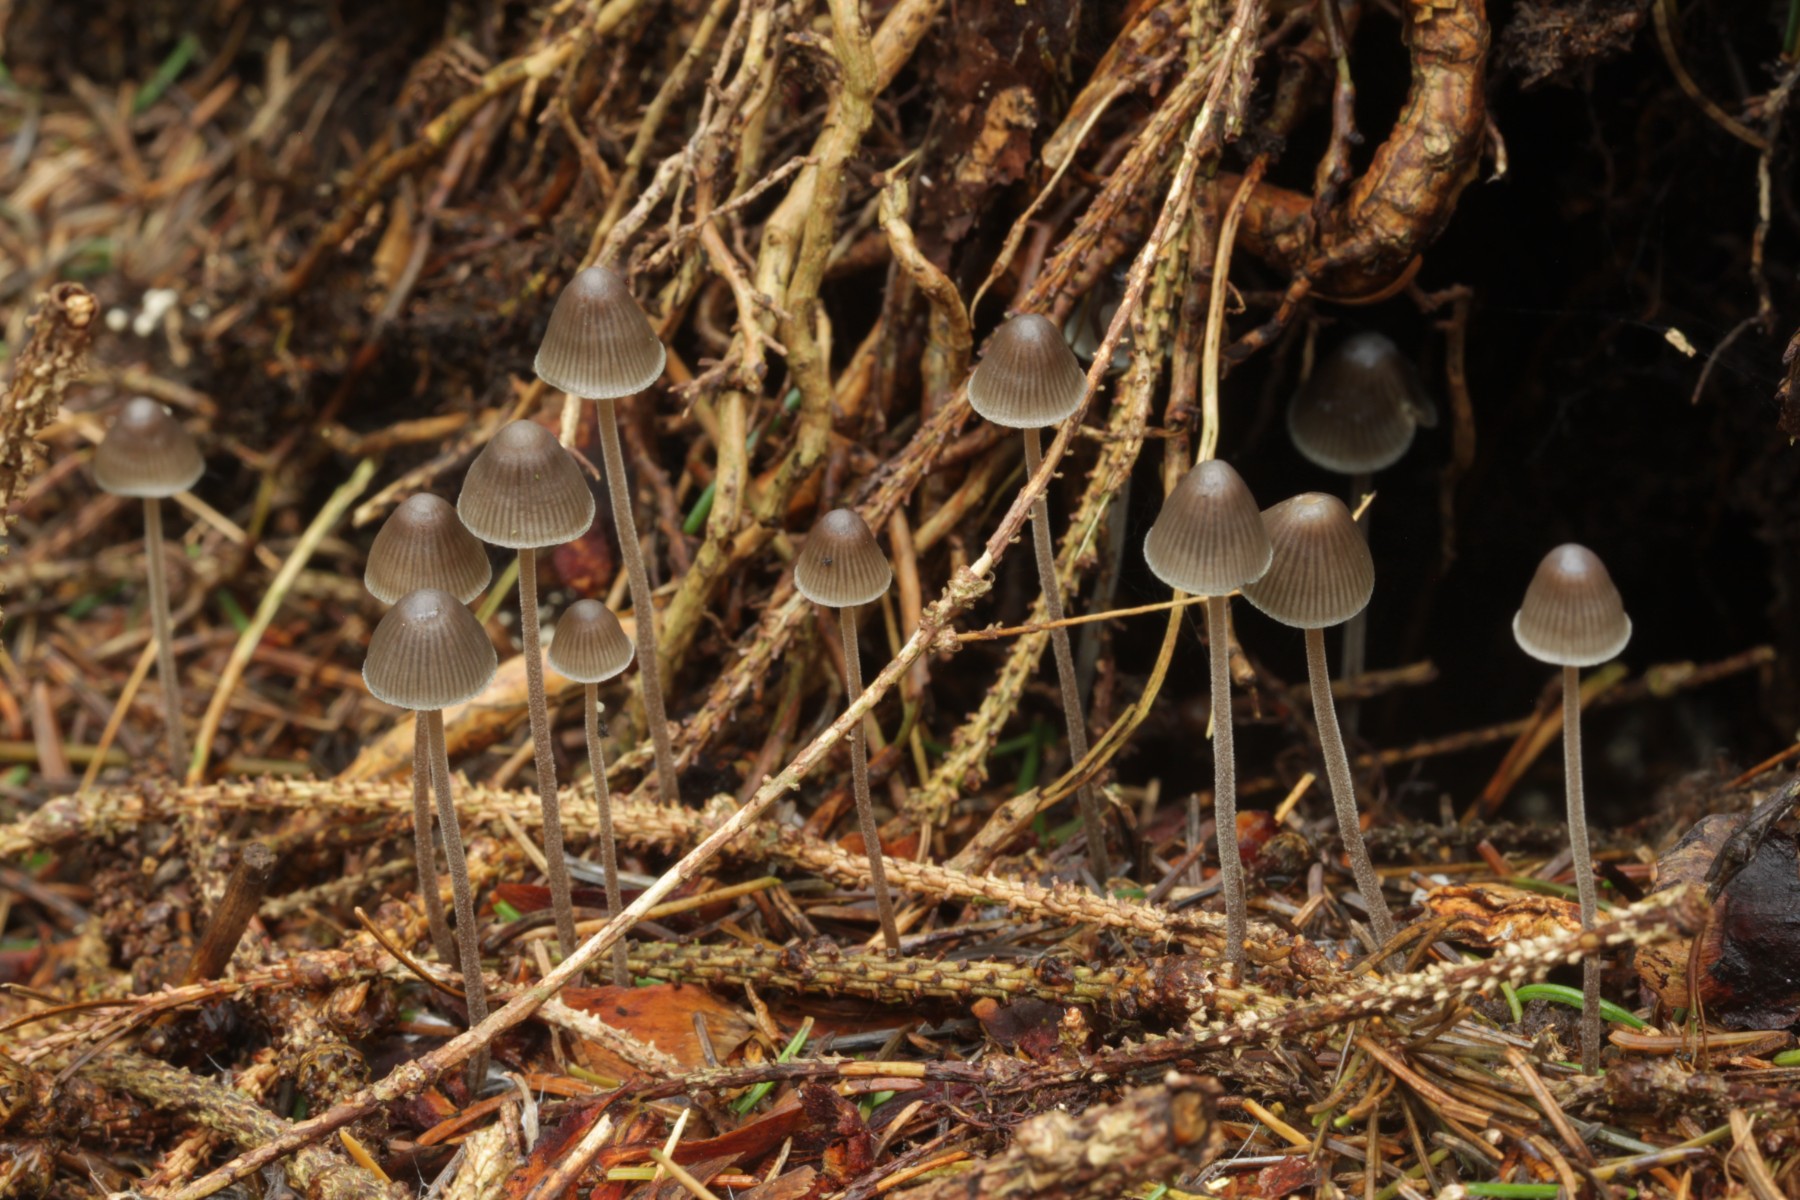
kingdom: Fungi
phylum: Basidiomycota
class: Agaricomycetes
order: Agaricales
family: Mycenaceae
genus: Mycena
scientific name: Mycena amicta
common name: iris-huesvamp
